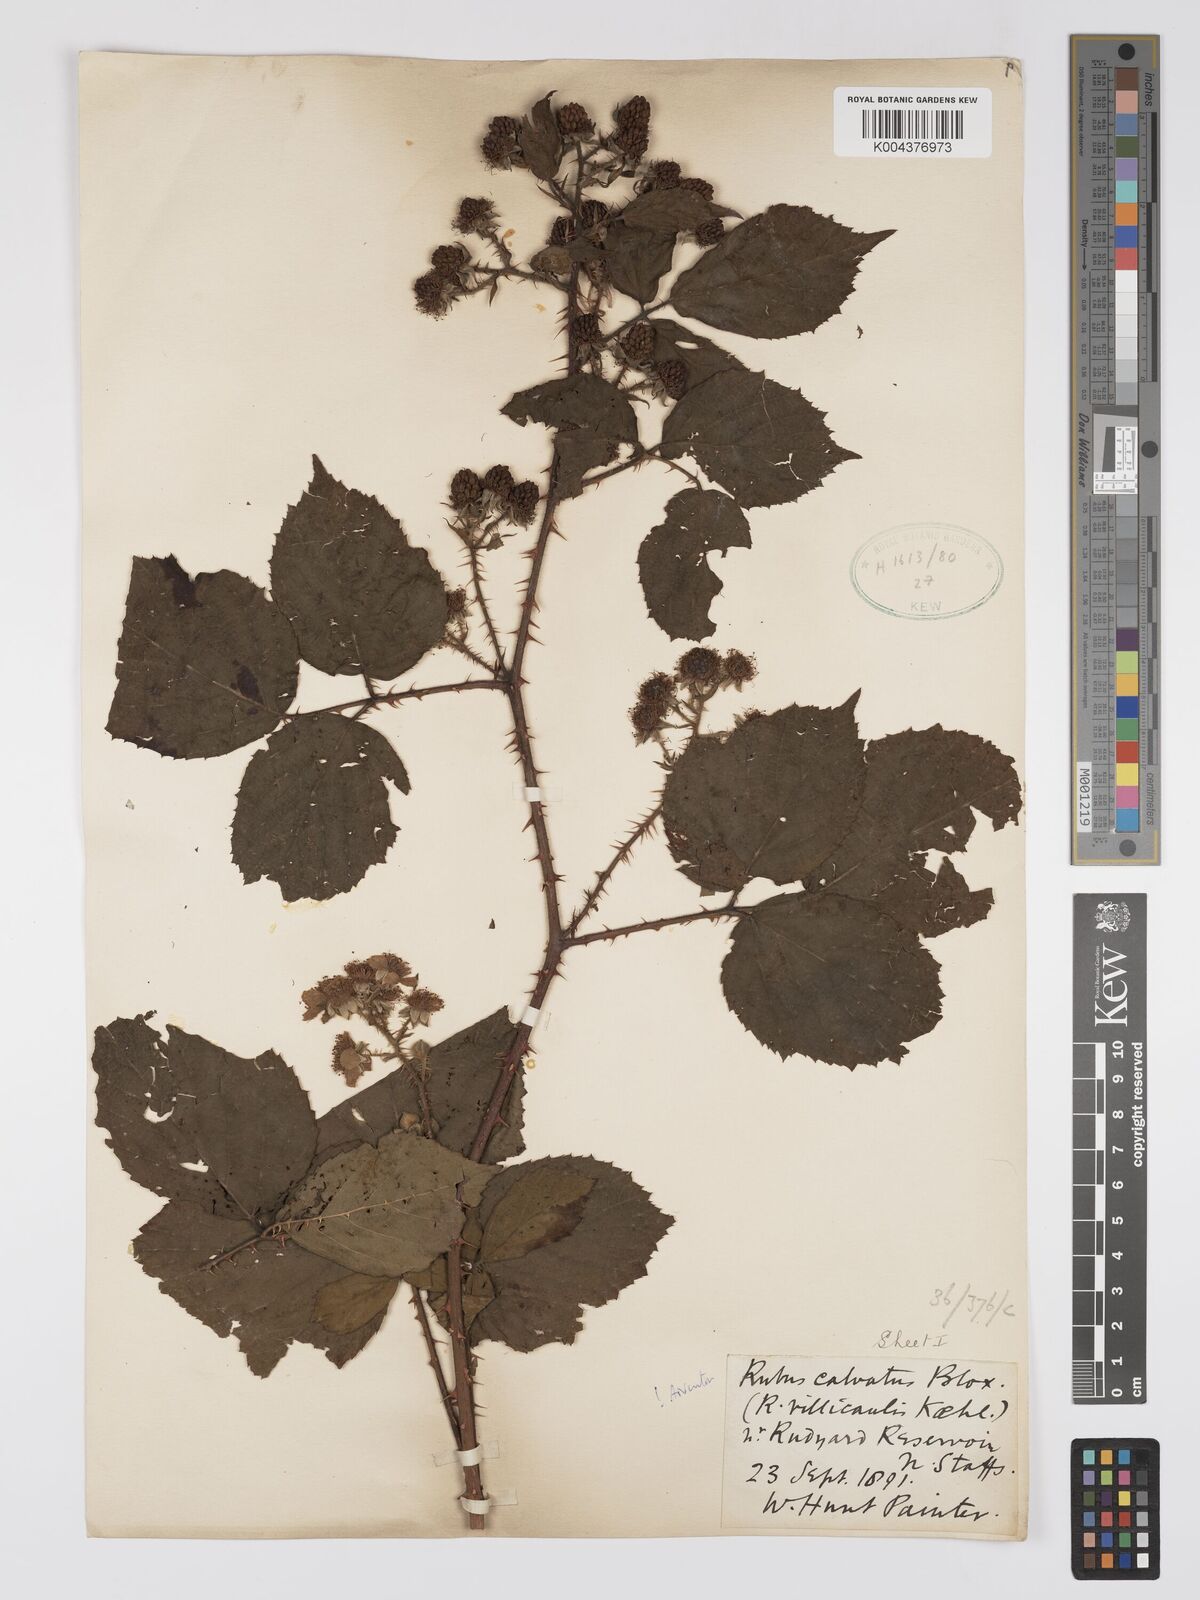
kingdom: Plantae
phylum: Tracheophyta
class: Magnoliopsida
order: Rosales
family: Rosaceae
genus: Rubus
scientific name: Rubus calvatus
